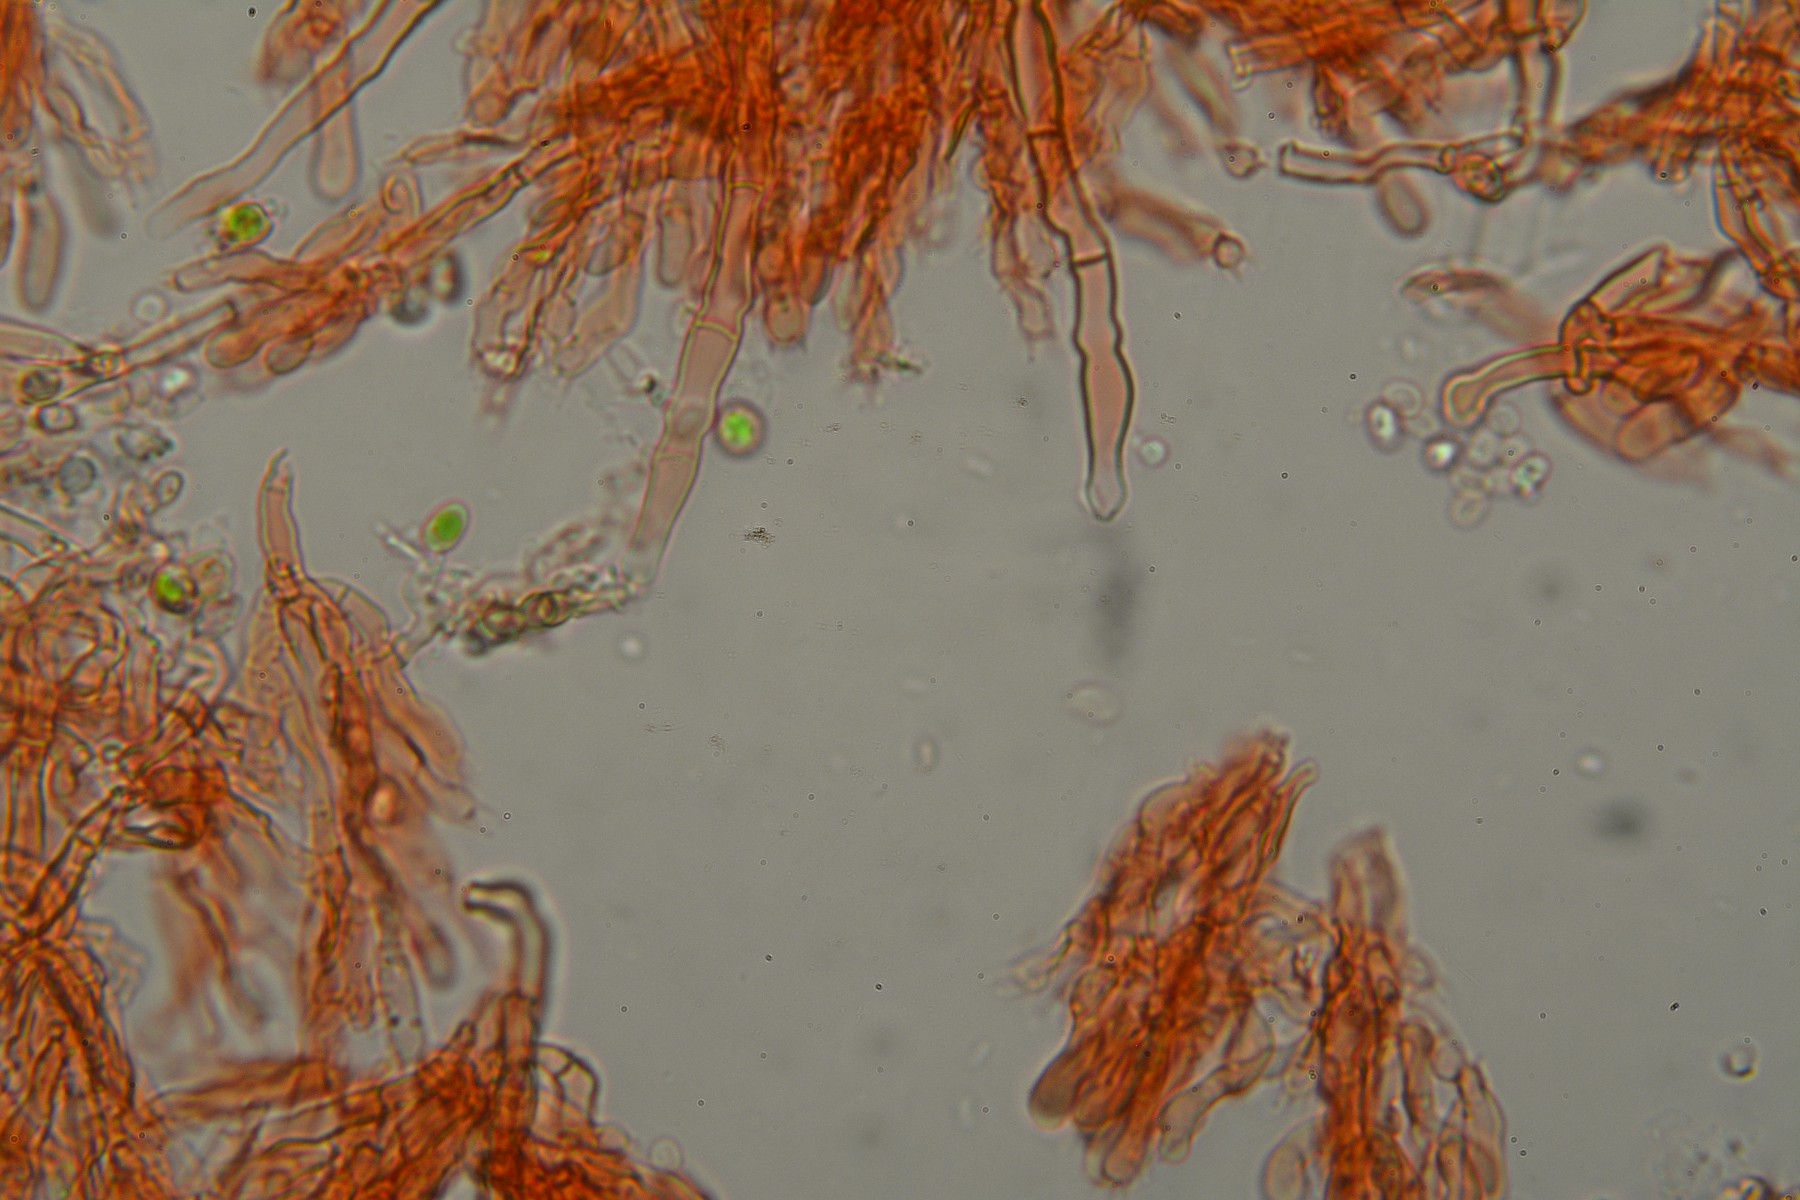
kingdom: Fungi
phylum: Basidiomycota
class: Agaricomycetes
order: Hymenochaetales
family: Hyphodontiaceae
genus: Hyphodontia
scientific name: Hyphodontia alutaria
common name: flaskerenser-nålehinde
